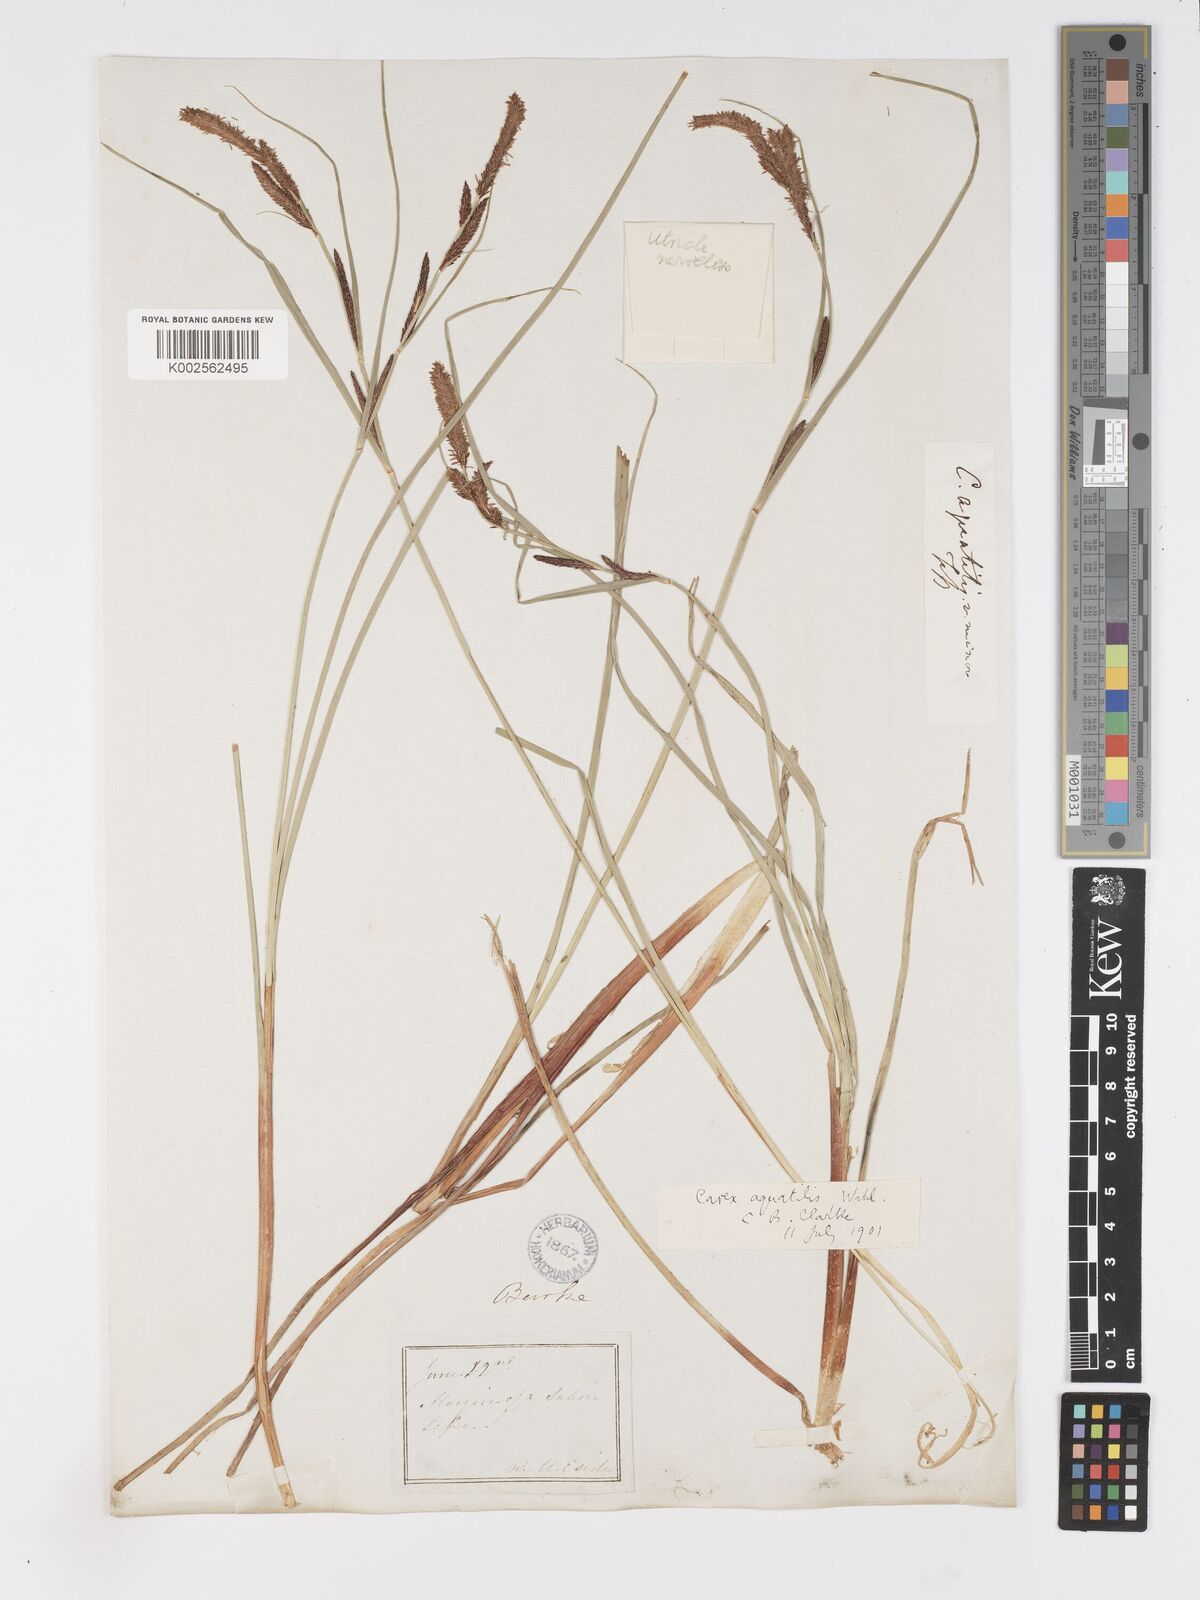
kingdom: Plantae
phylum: Tracheophyta
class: Liliopsida
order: Poales
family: Cyperaceae
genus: Carex
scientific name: Carex
